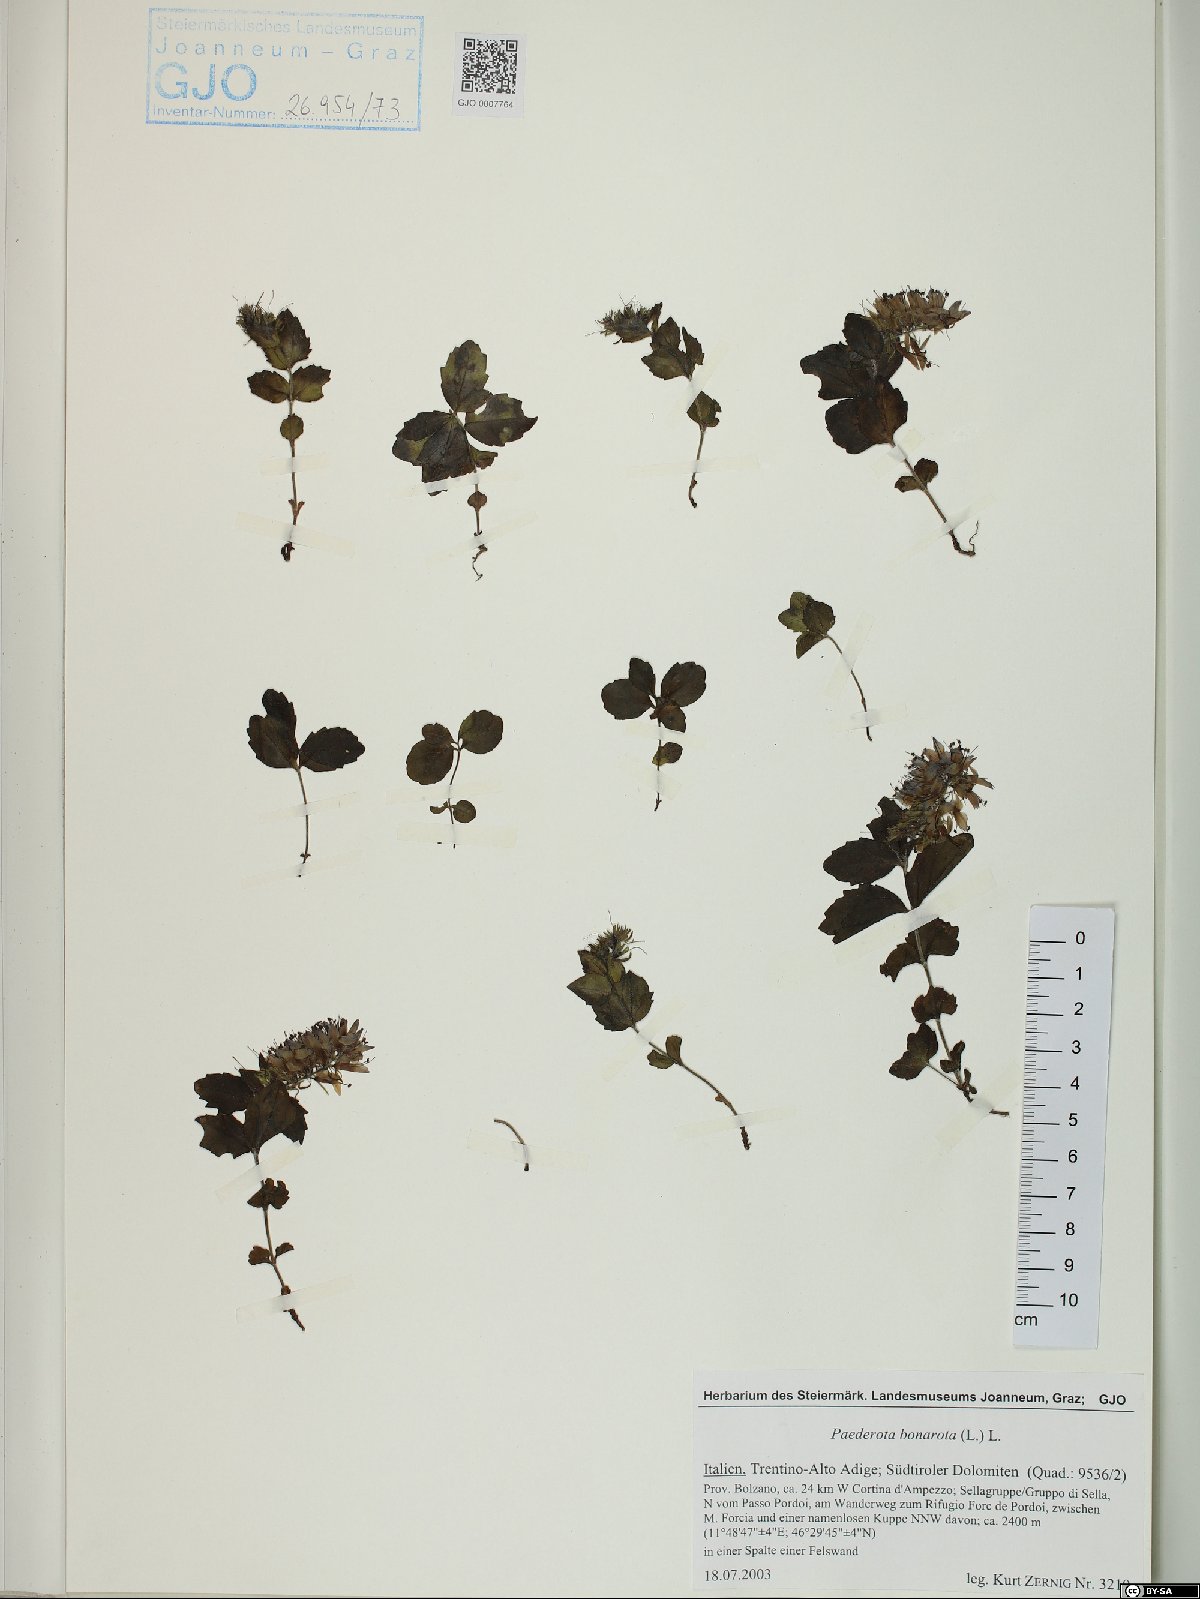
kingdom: Plantae
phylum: Tracheophyta
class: Magnoliopsida
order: Lamiales
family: Plantaginaceae
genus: Paederota
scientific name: Paederota bonarota
